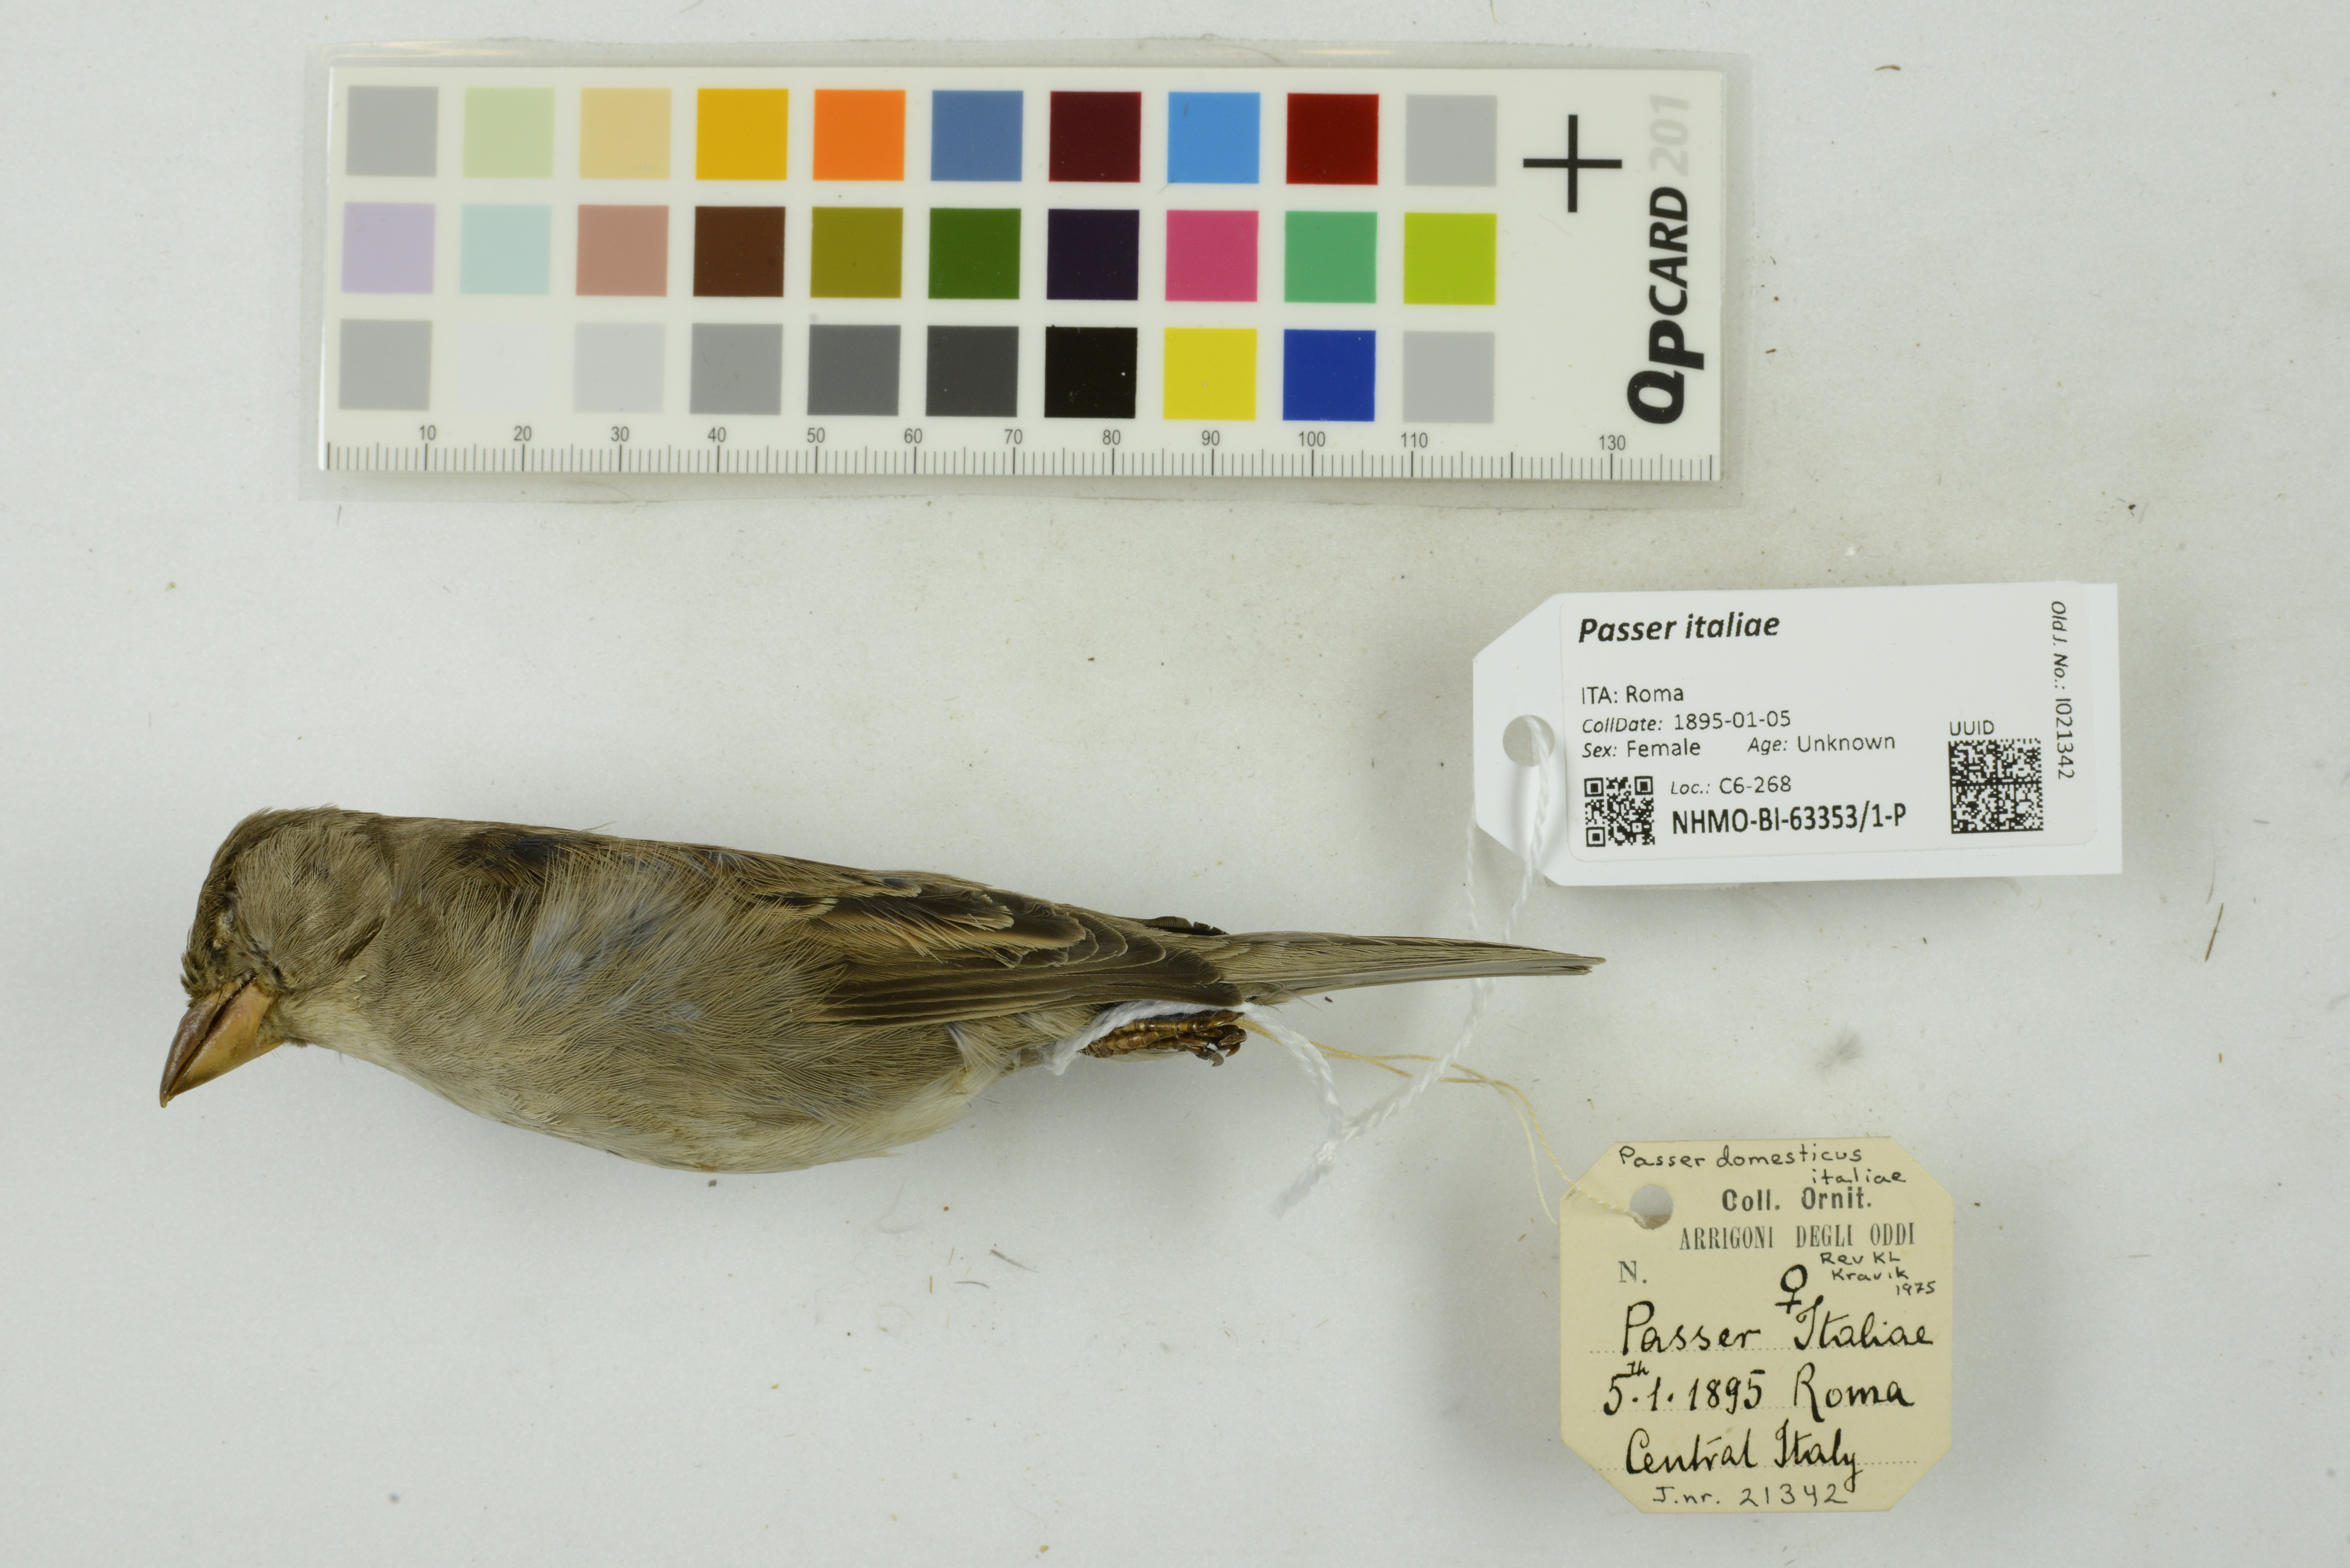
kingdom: Animalia
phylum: Chordata
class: Aves
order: Passeriformes
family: Passeridae
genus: Passer
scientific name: Passer italiae
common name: Italian sparrow
